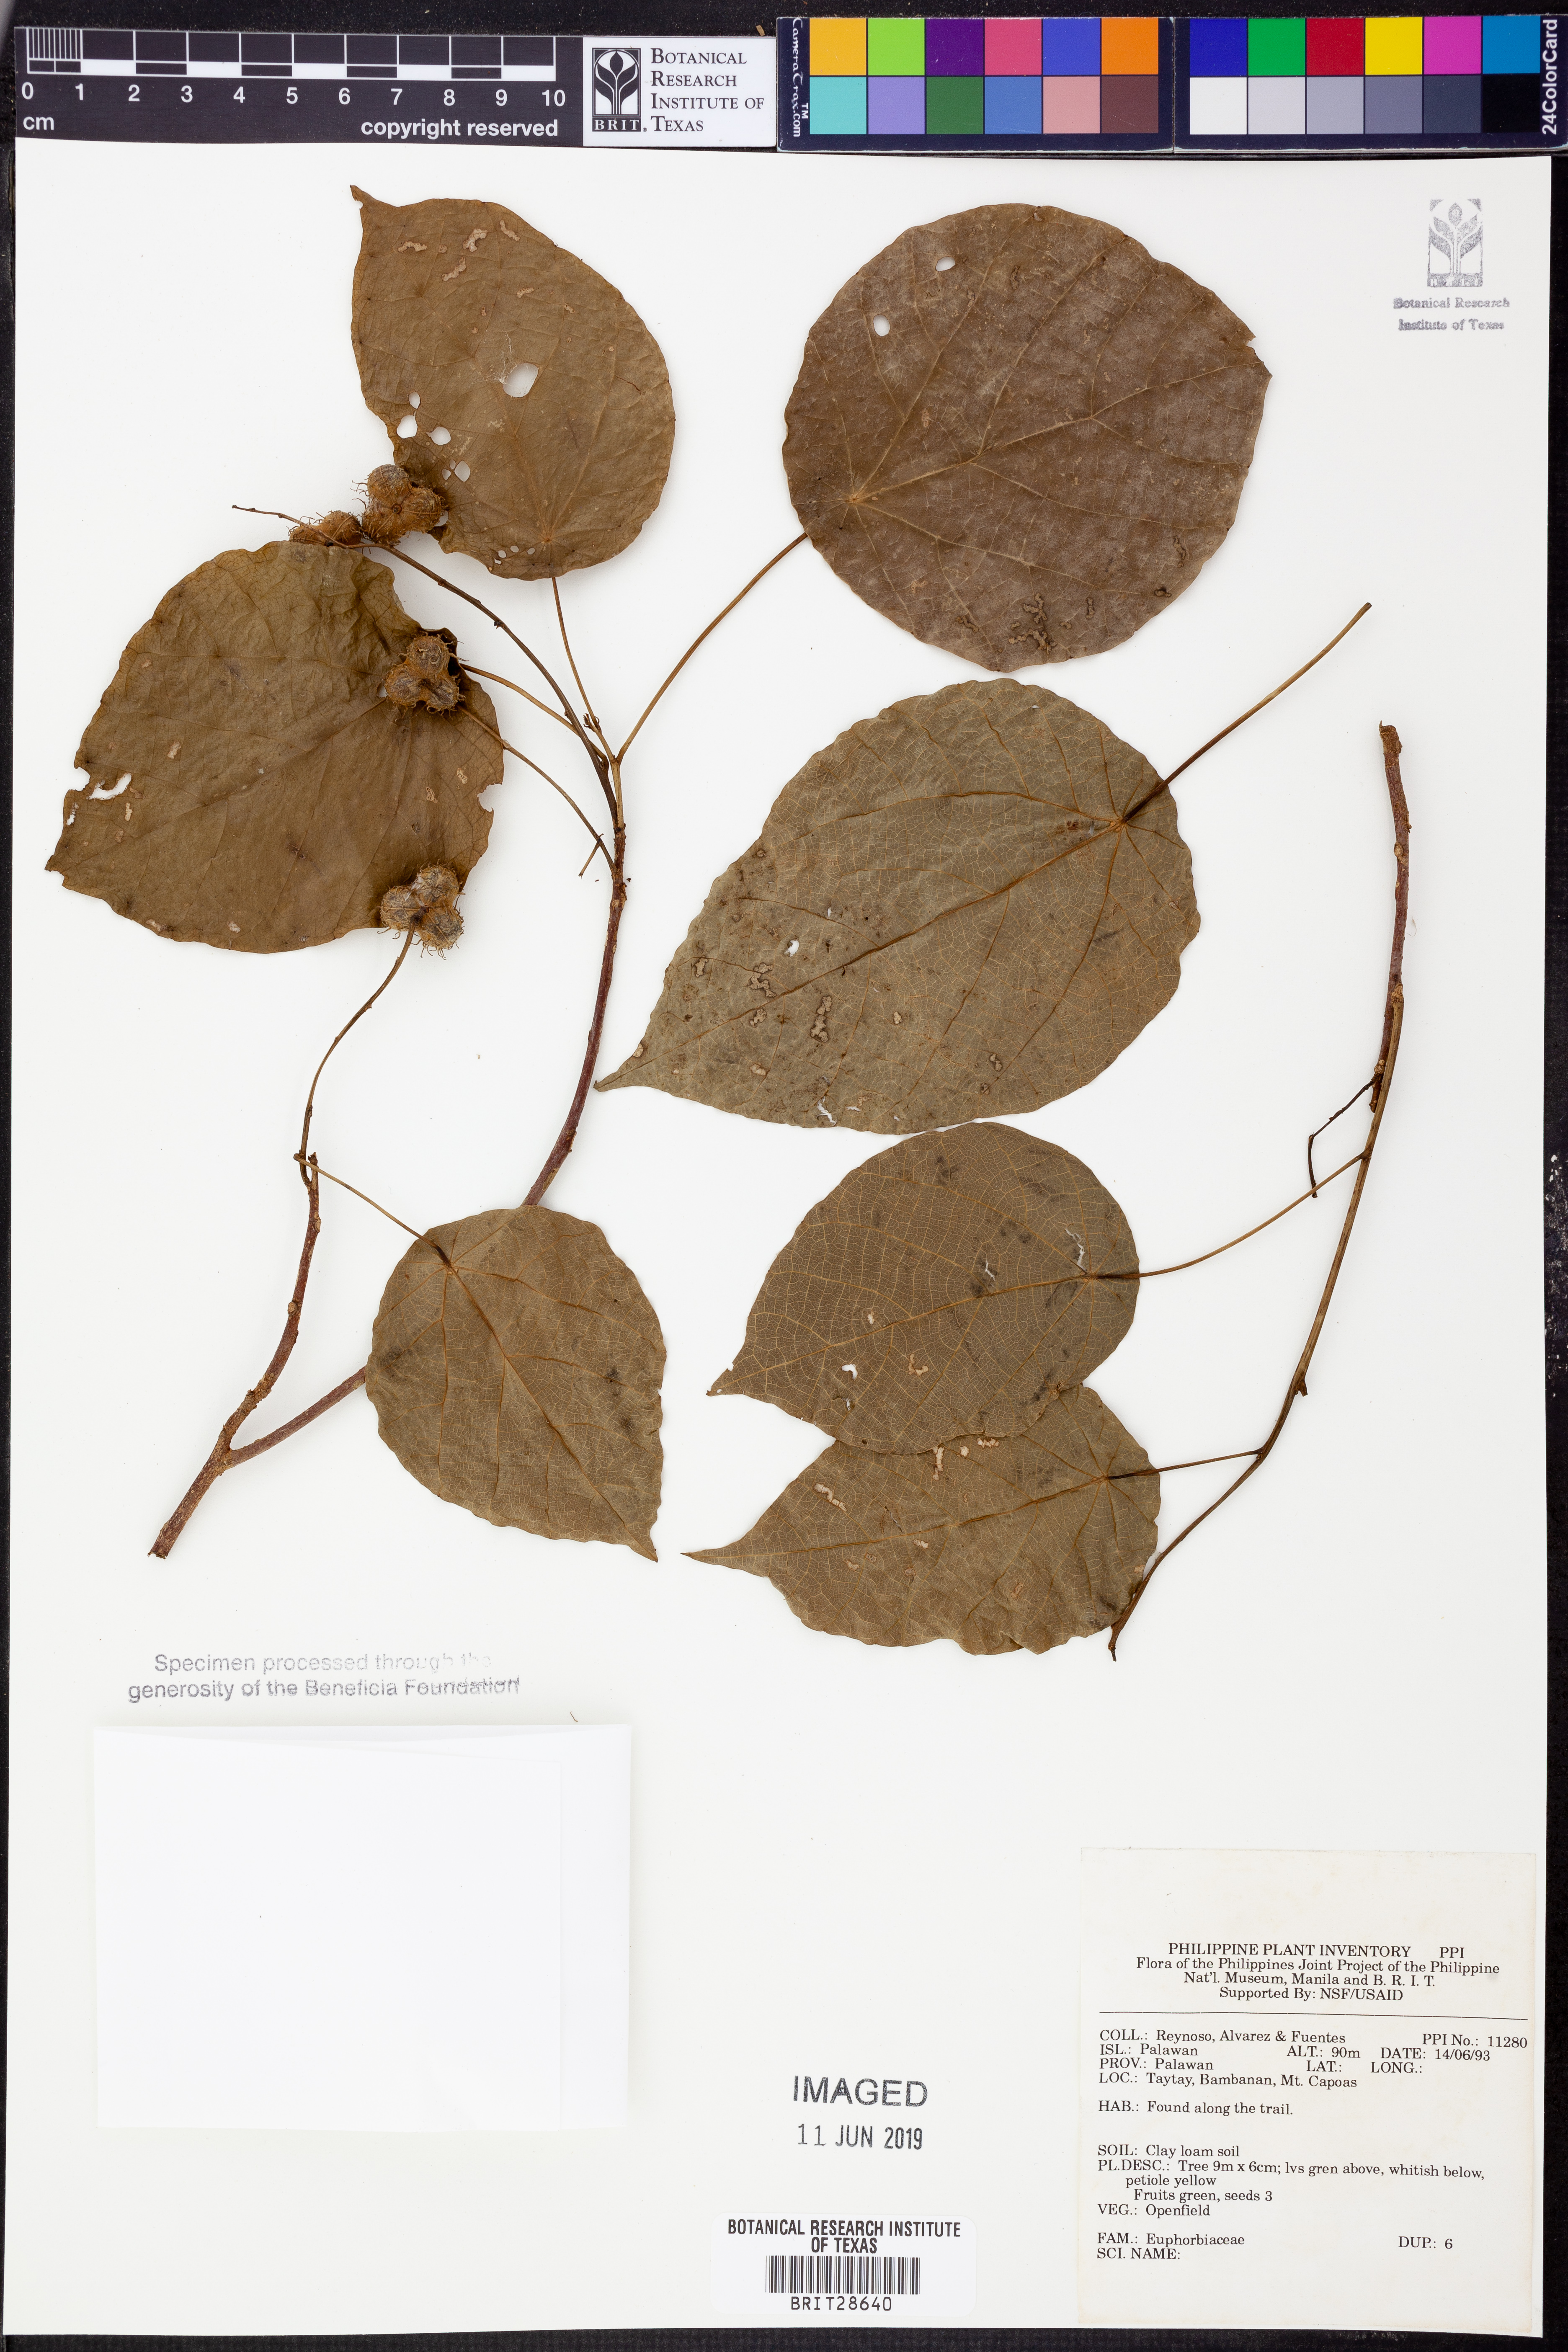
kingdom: Plantae
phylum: Tracheophyta
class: Magnoliopsida
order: Malpighiales
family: Euphorbiaceae
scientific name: Euphorbiaceae
